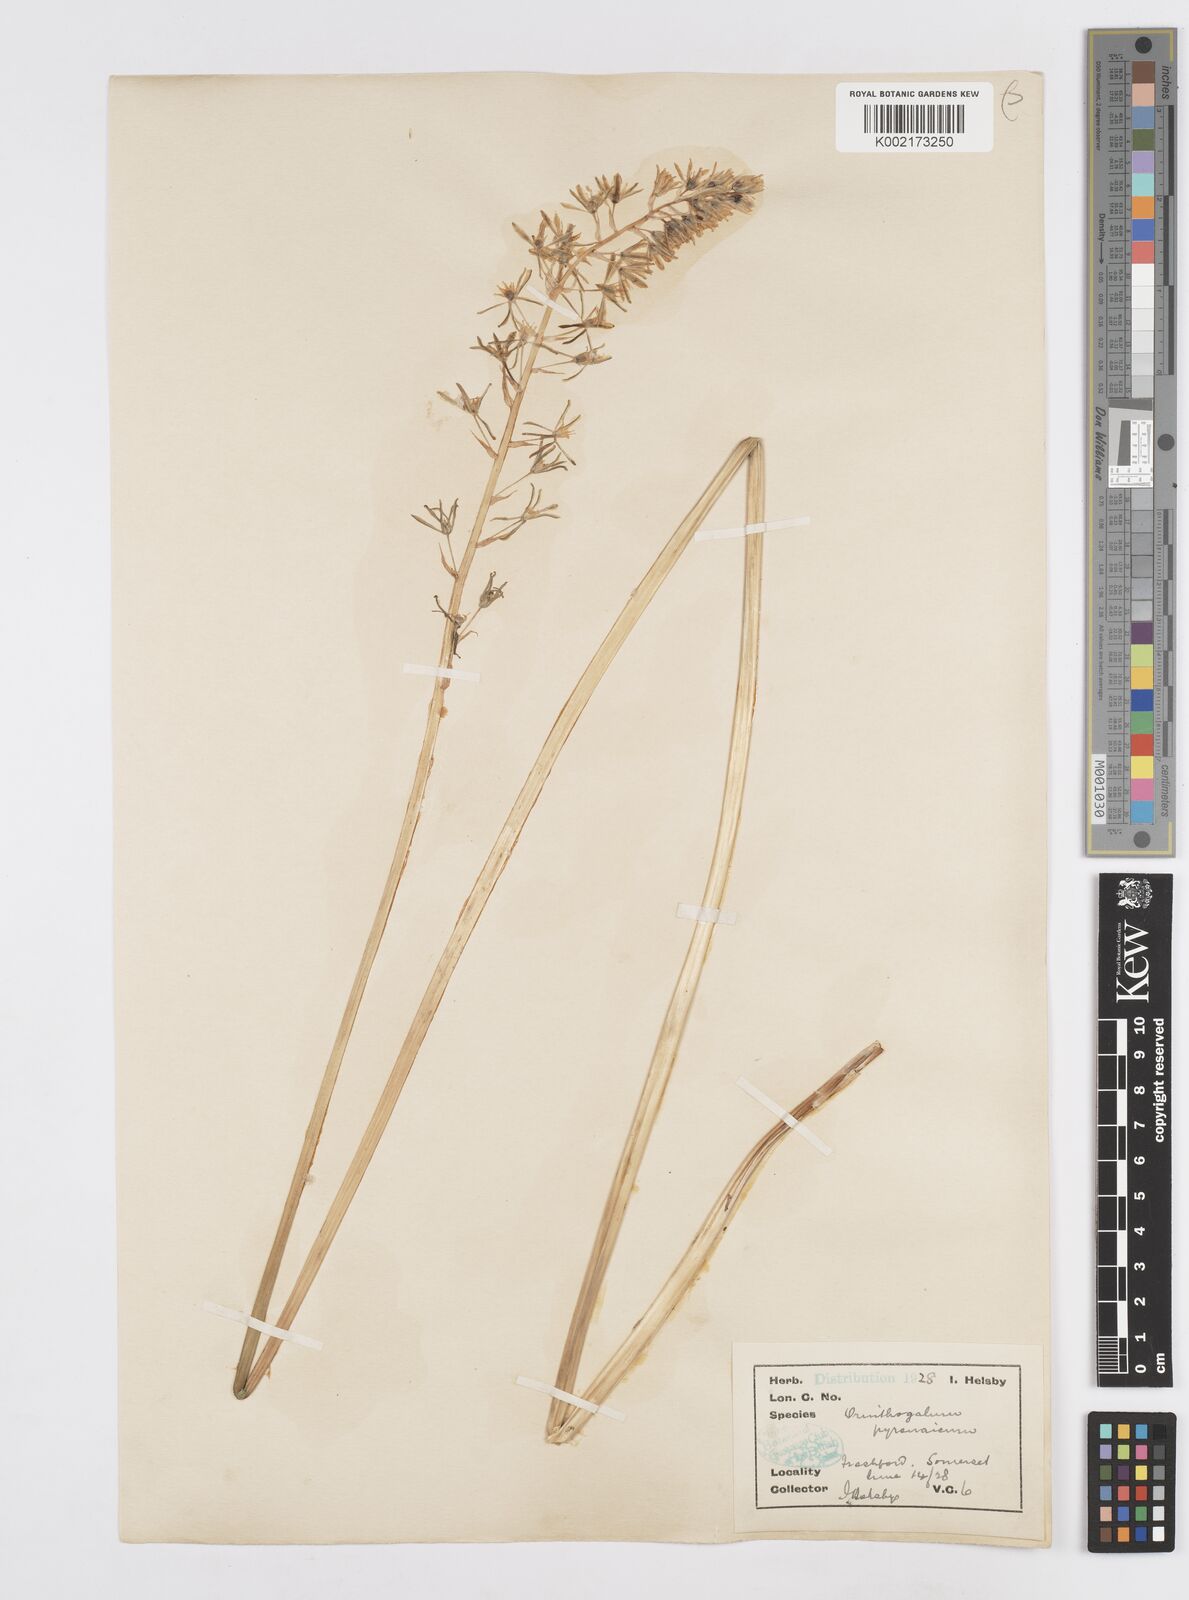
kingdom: Plantae
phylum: Tracheophyta
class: Liliopsida
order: Asparagales
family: Asparagaceae
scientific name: Asparagaceae
